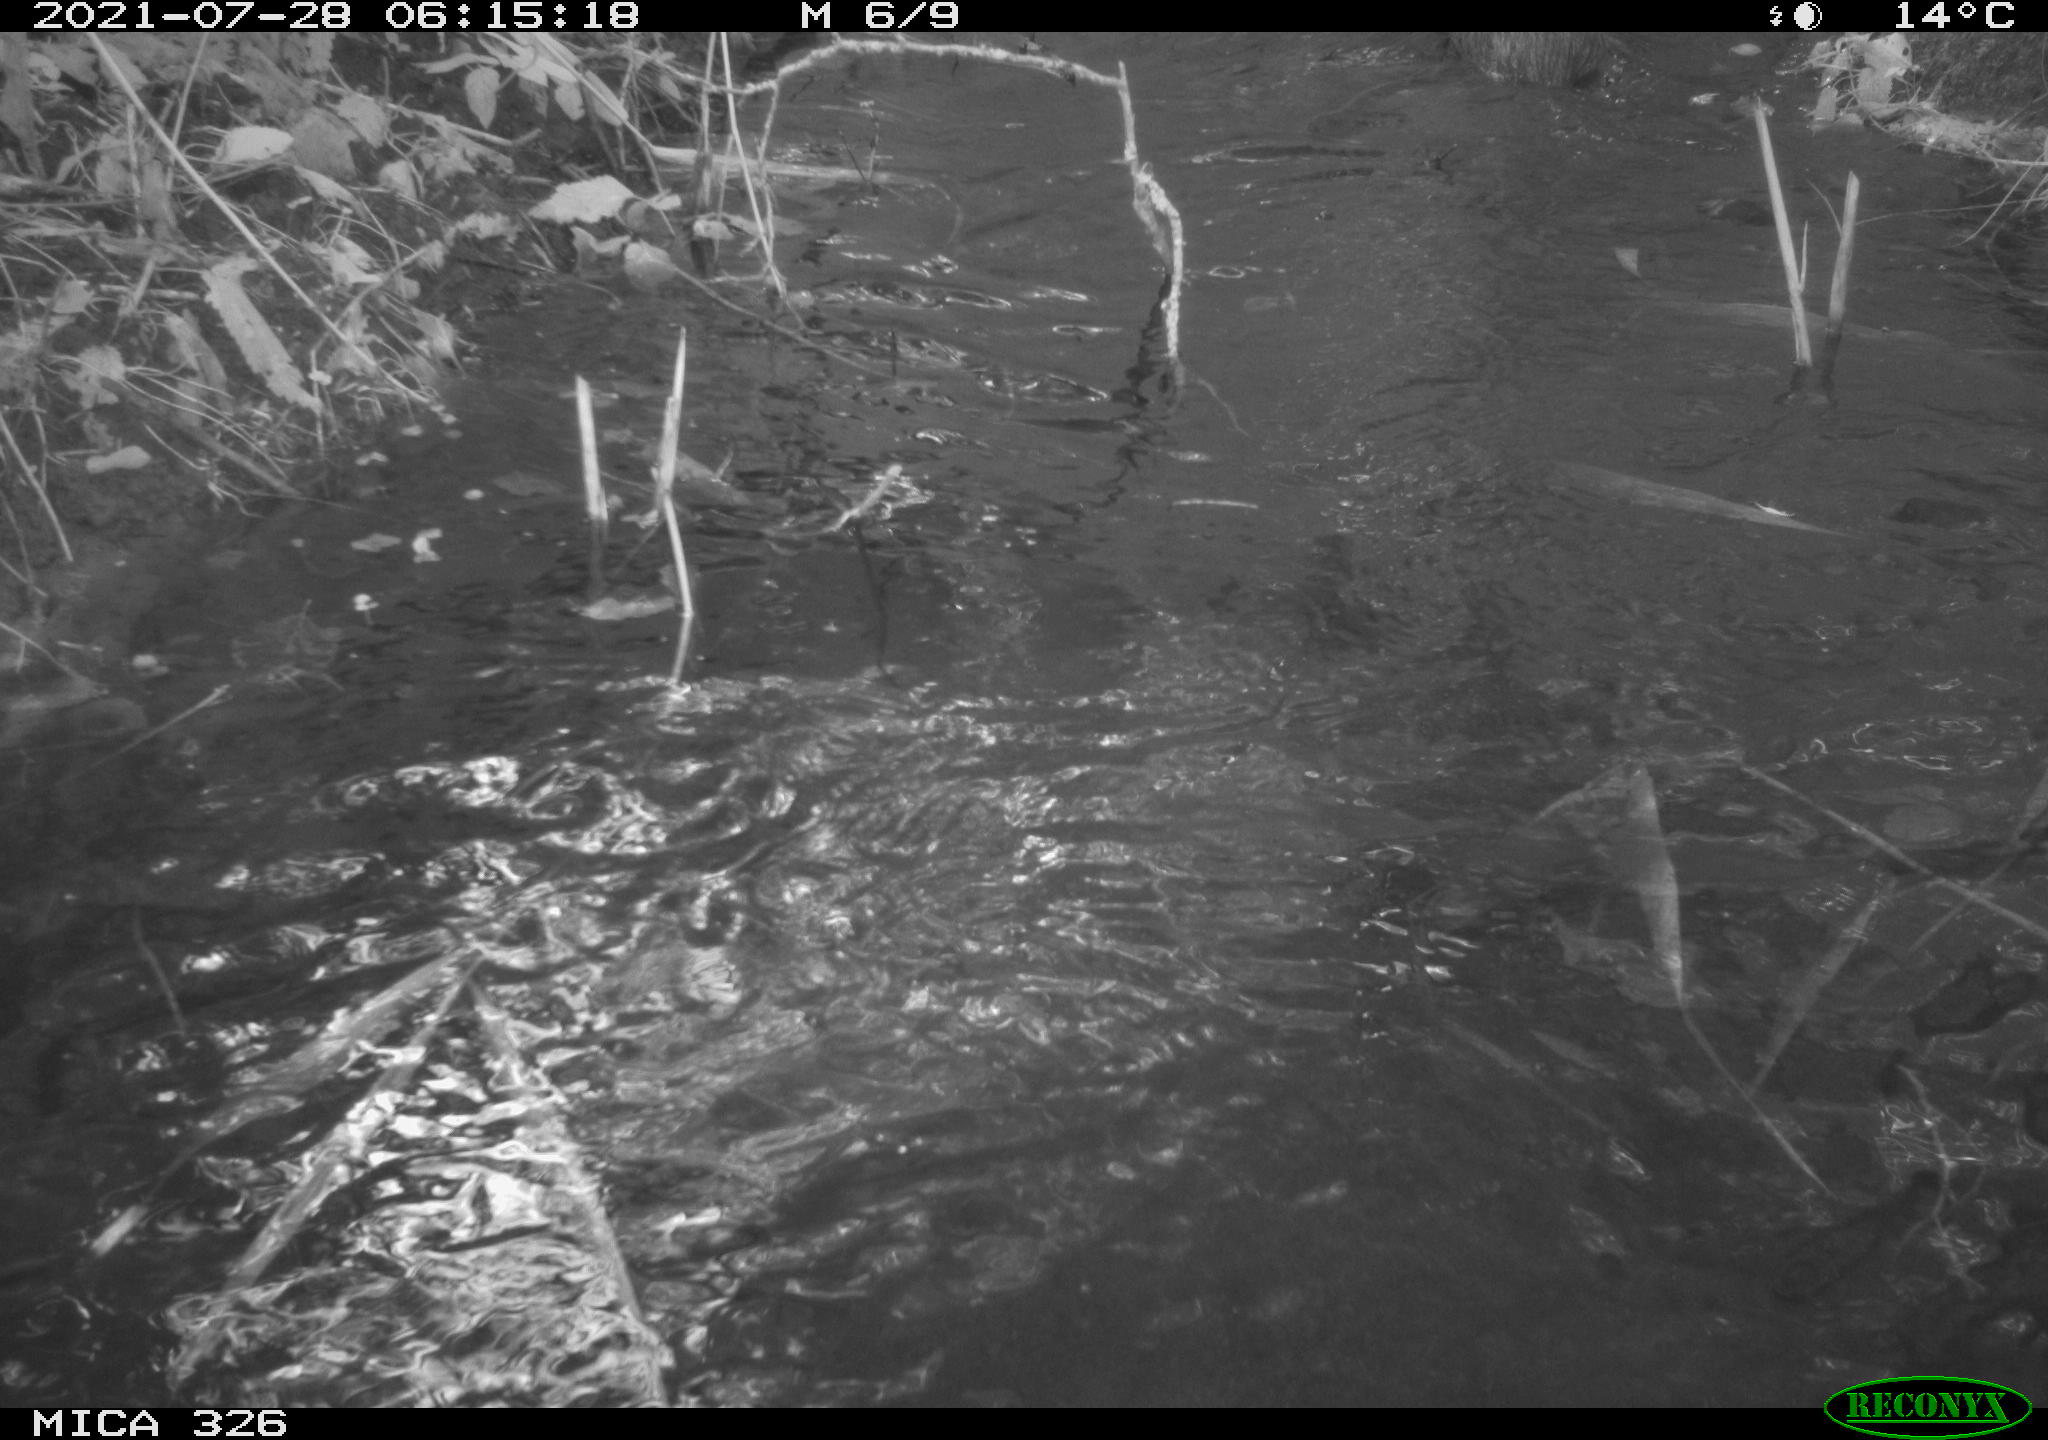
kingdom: Animalia
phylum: Chordata
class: Mammalia
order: Rodentia
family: Myocastoridae
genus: Myocastor
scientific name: Myocastor coypus
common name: Coypu
